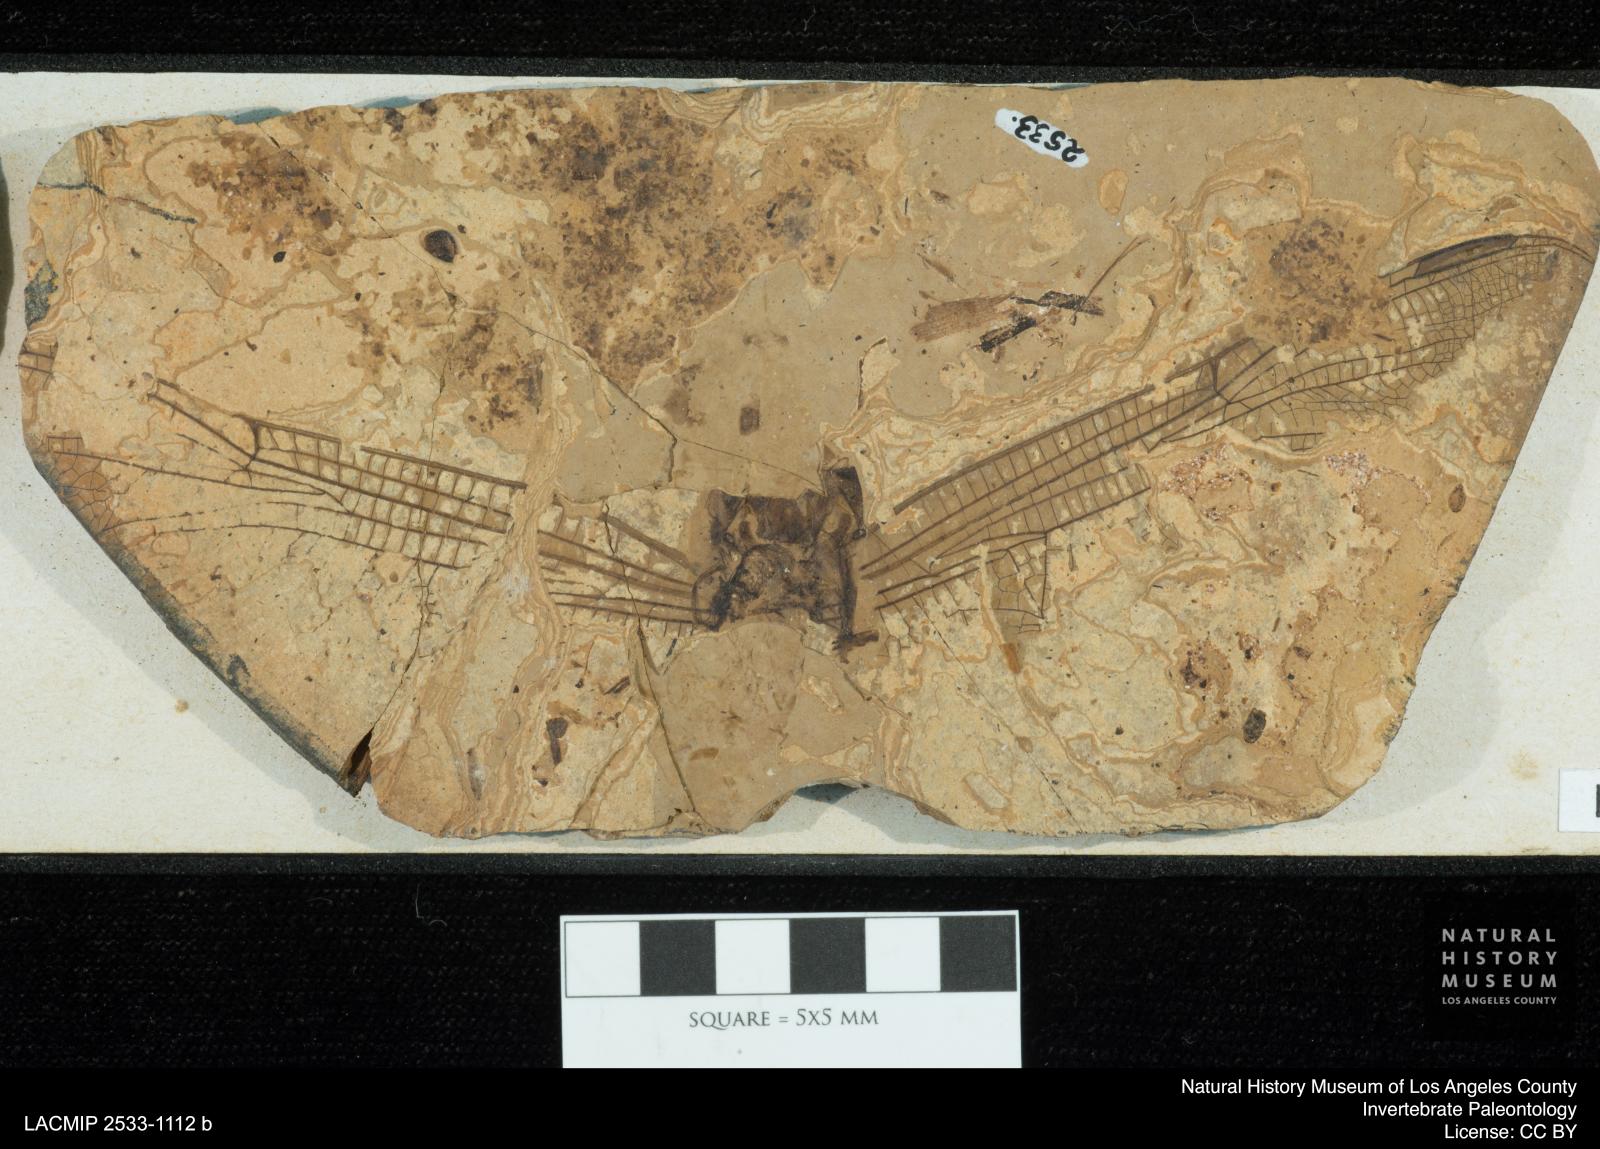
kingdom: Animalia
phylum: Arthropoda
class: Insecta
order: Odonata
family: Libellulidae
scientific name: Libellulidae
